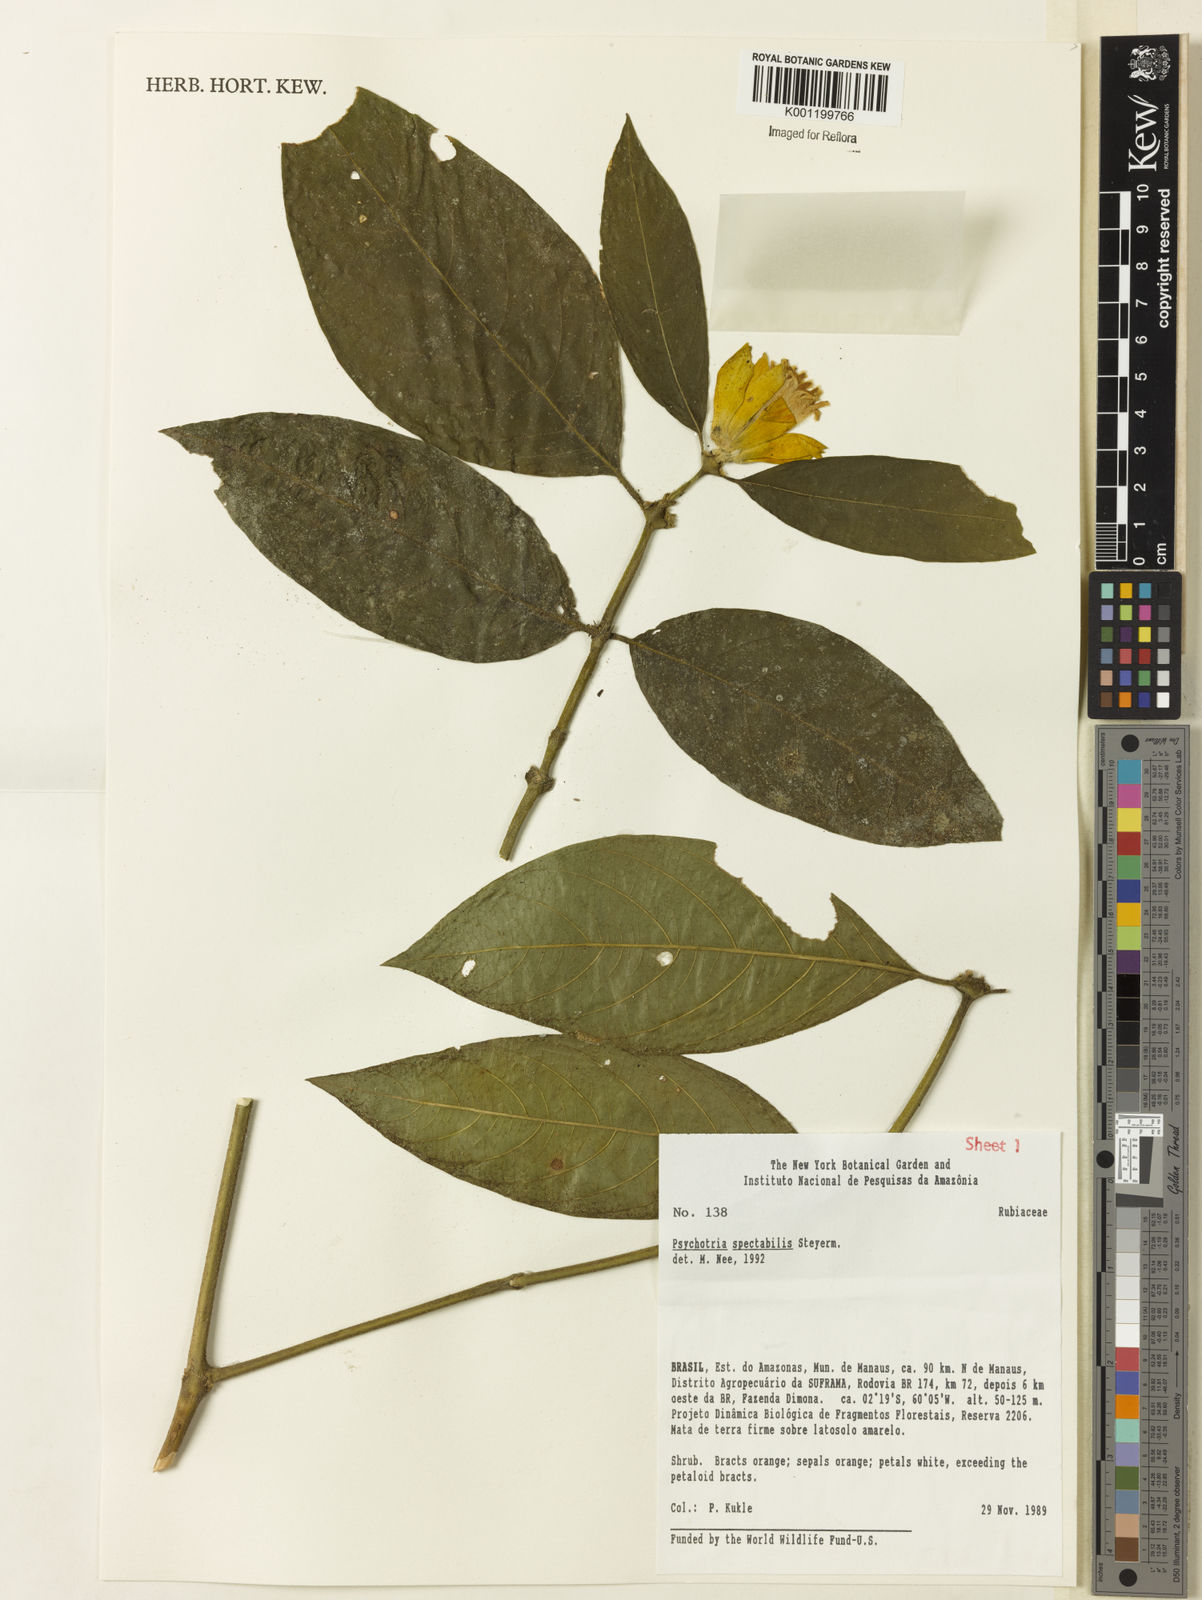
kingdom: Plantae
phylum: Tracheophyta
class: Magnoliopsida
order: Gentianales
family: Rubiaceae
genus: Palicourea
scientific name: Palicourea spectabilis
